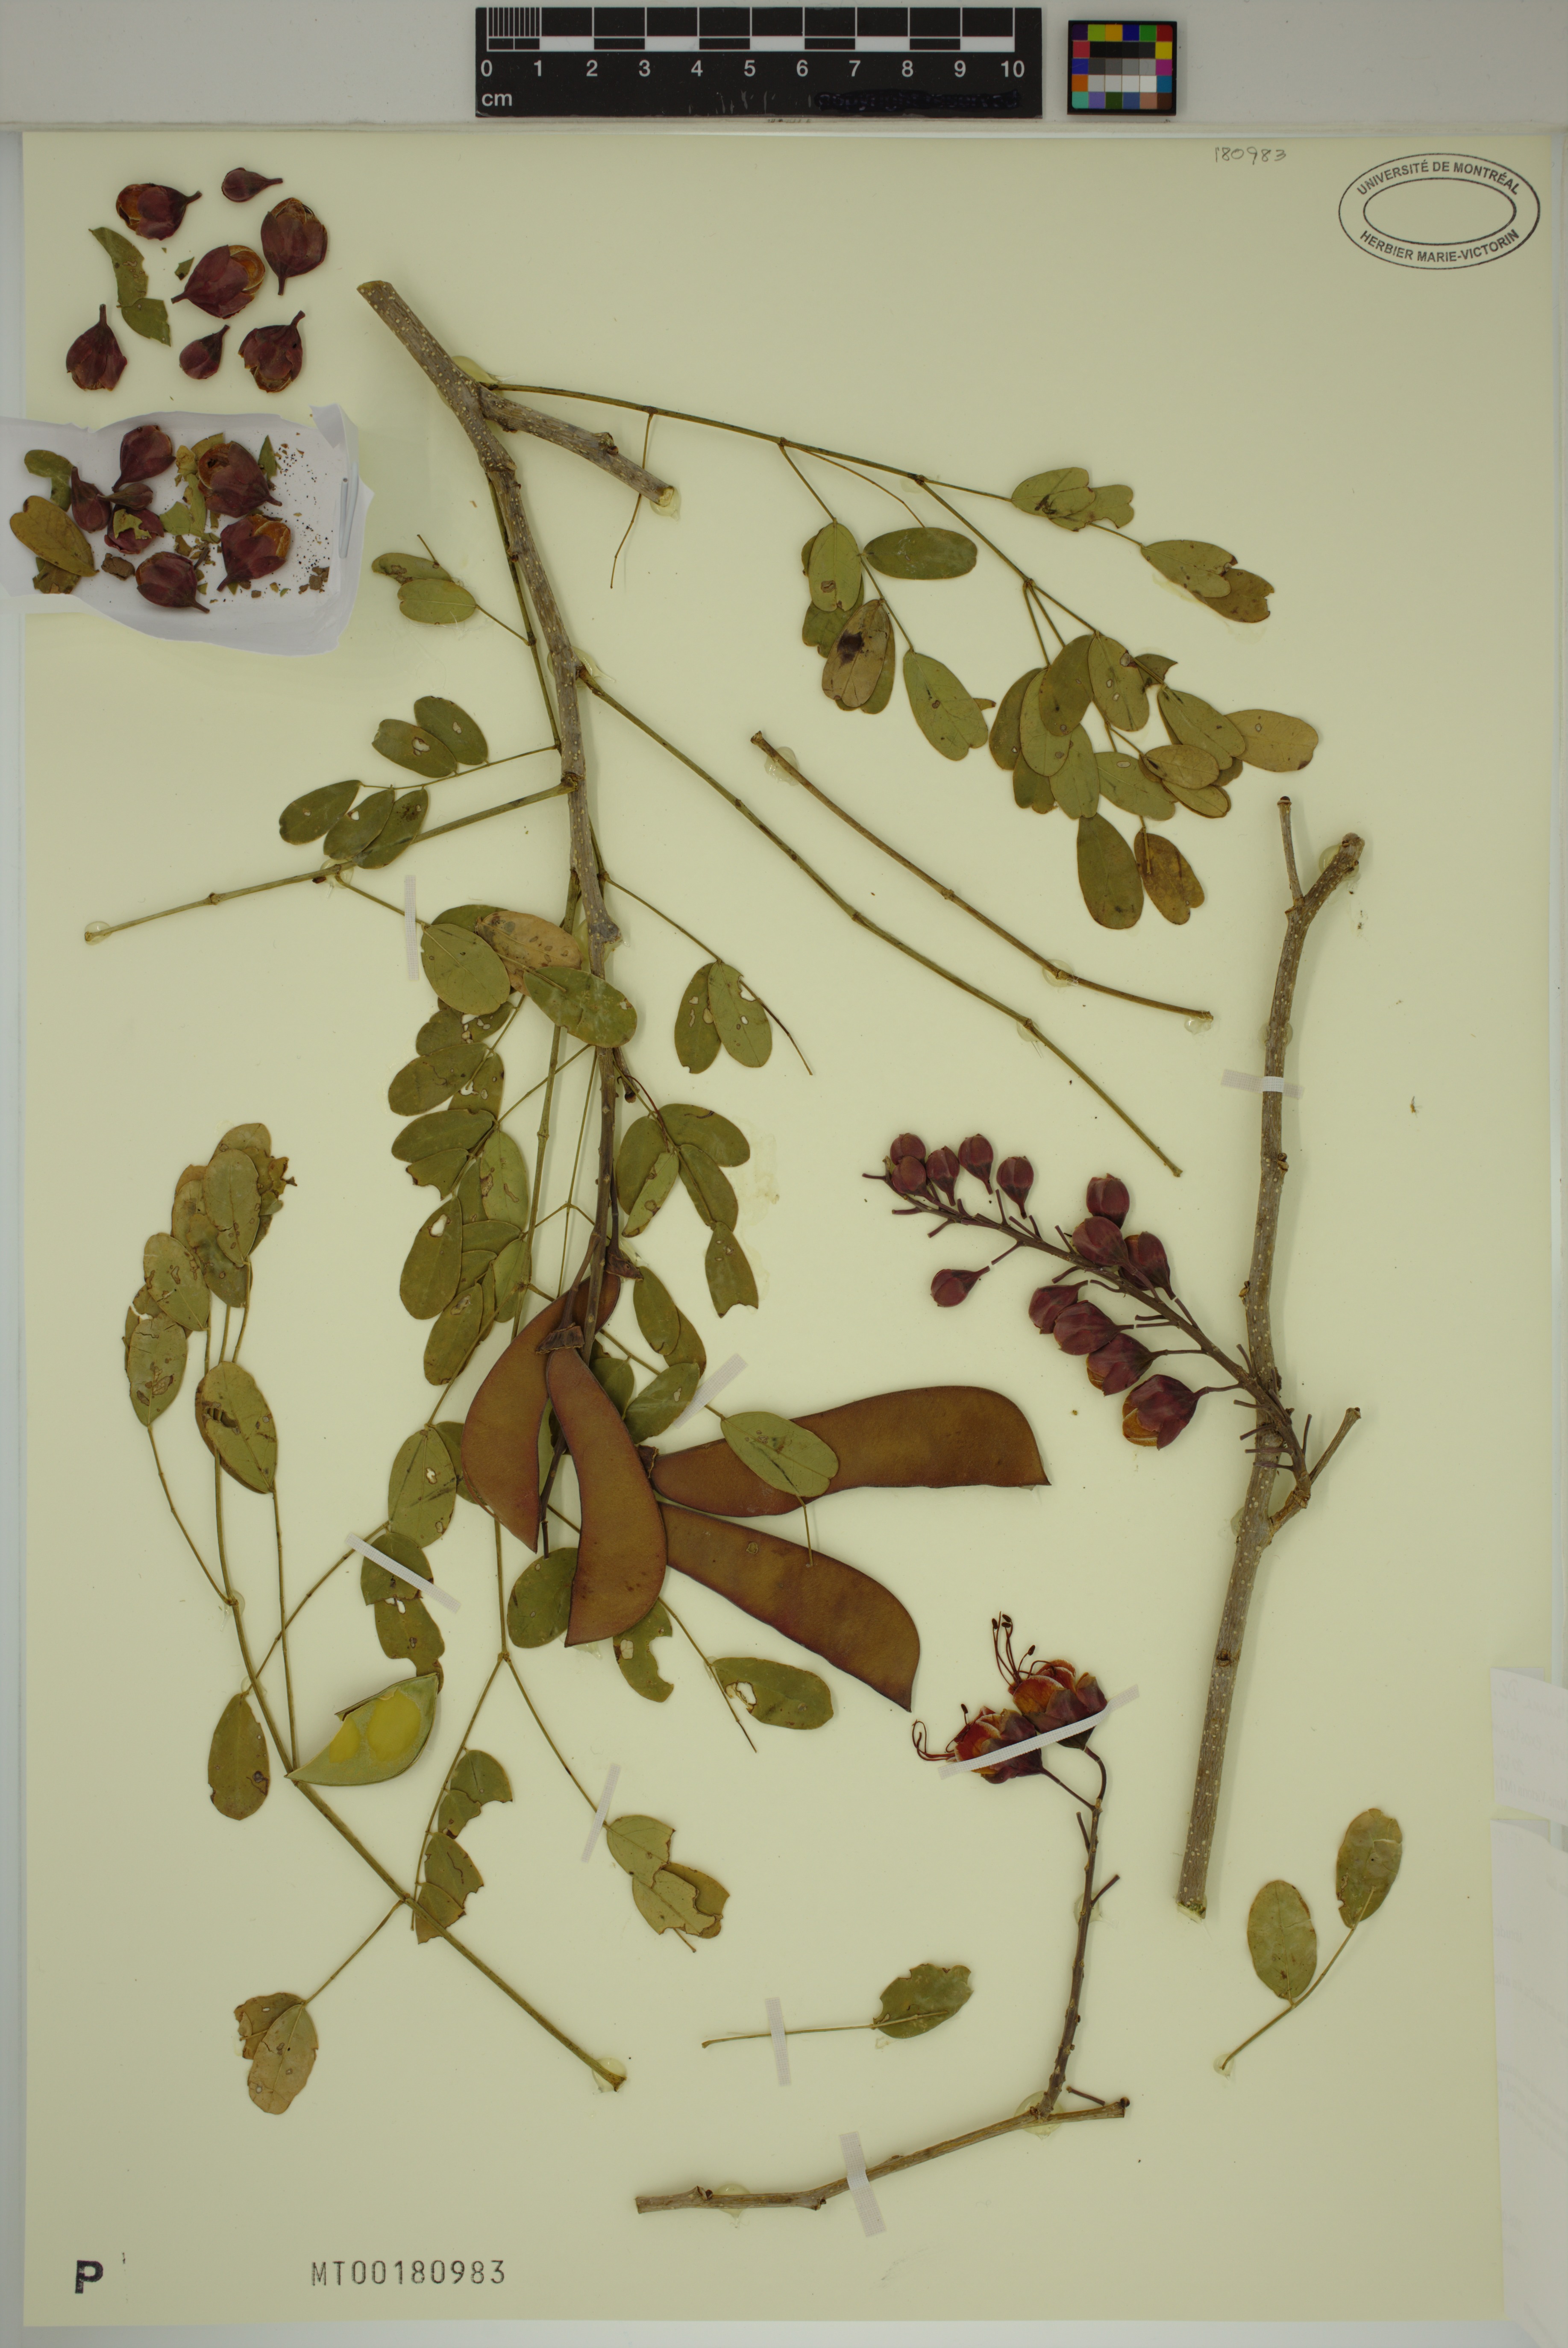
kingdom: Plantae
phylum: Tracheophyta
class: Magnoliopsida
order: Fabales
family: Fabaceae
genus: Erythrostemon
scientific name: Erythrostemon exostemma
